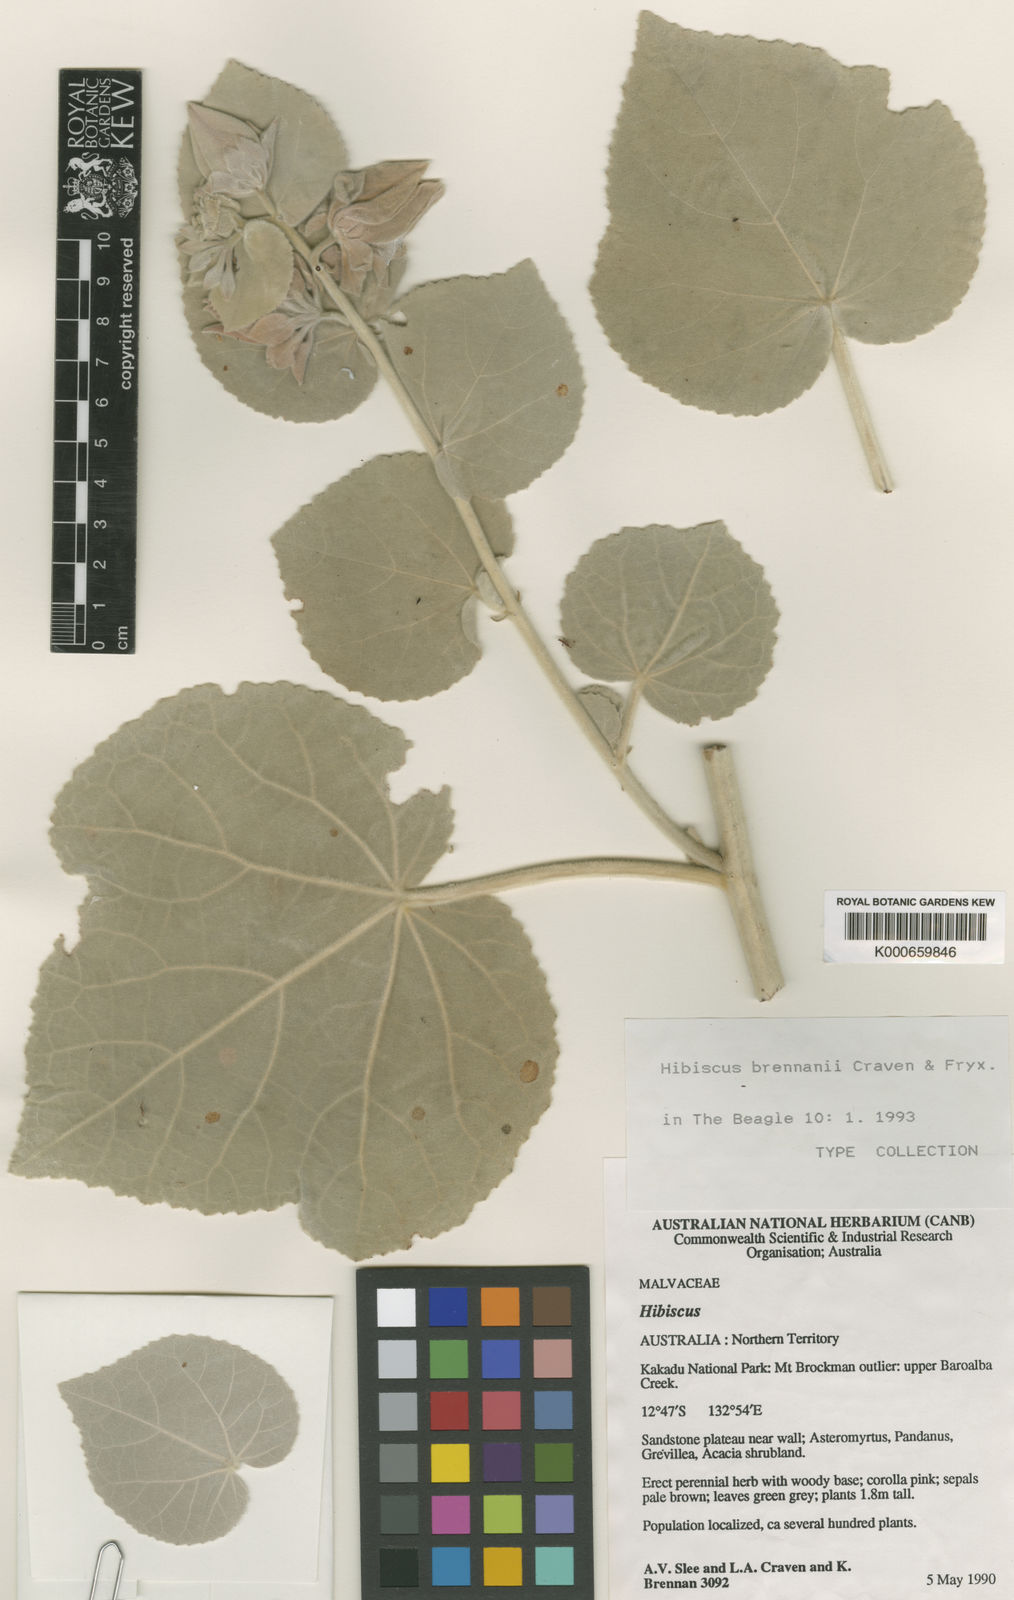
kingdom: Plantae
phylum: Tracheophyta
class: Magnoliopsida
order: Malvales
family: Malvaceae
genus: Hibiscus
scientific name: Hibiscus brennanii
